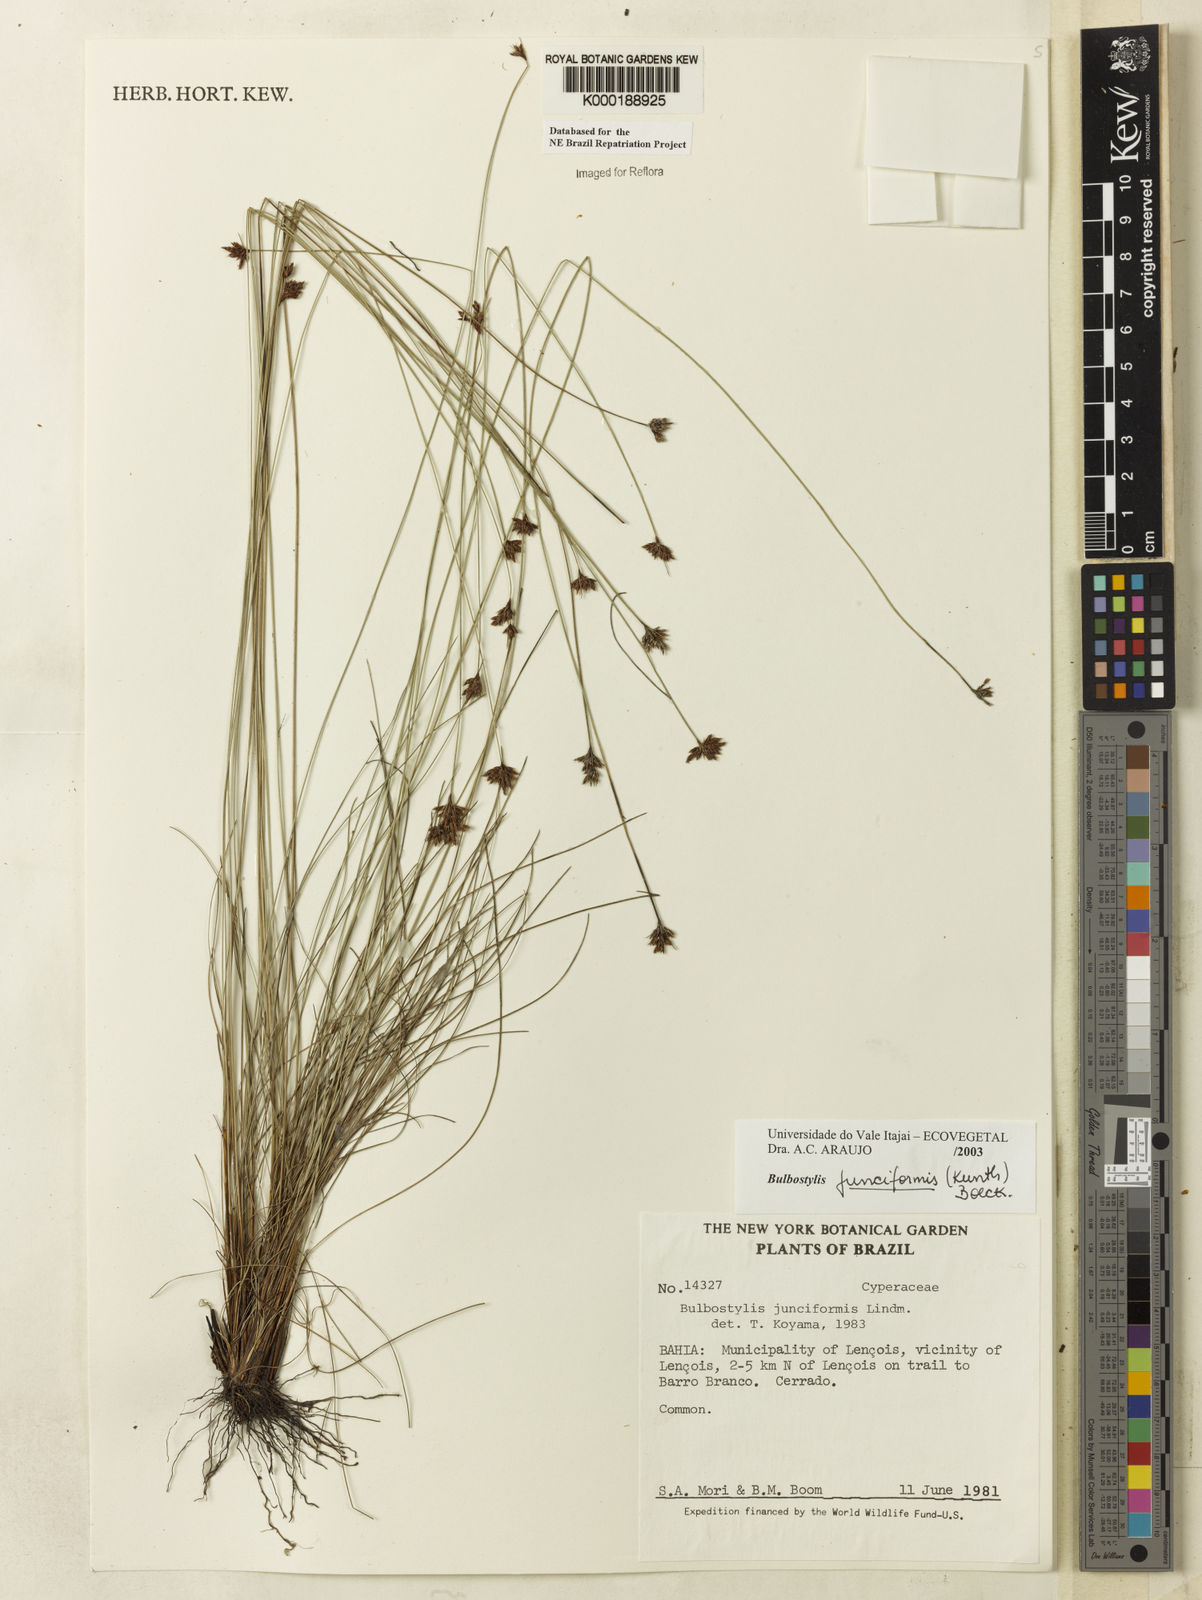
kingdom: Plantae
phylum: Tracheophyta
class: Liliopsida
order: Poales
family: Cyperaceae
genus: Bulbostylis
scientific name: Bulbostylis
